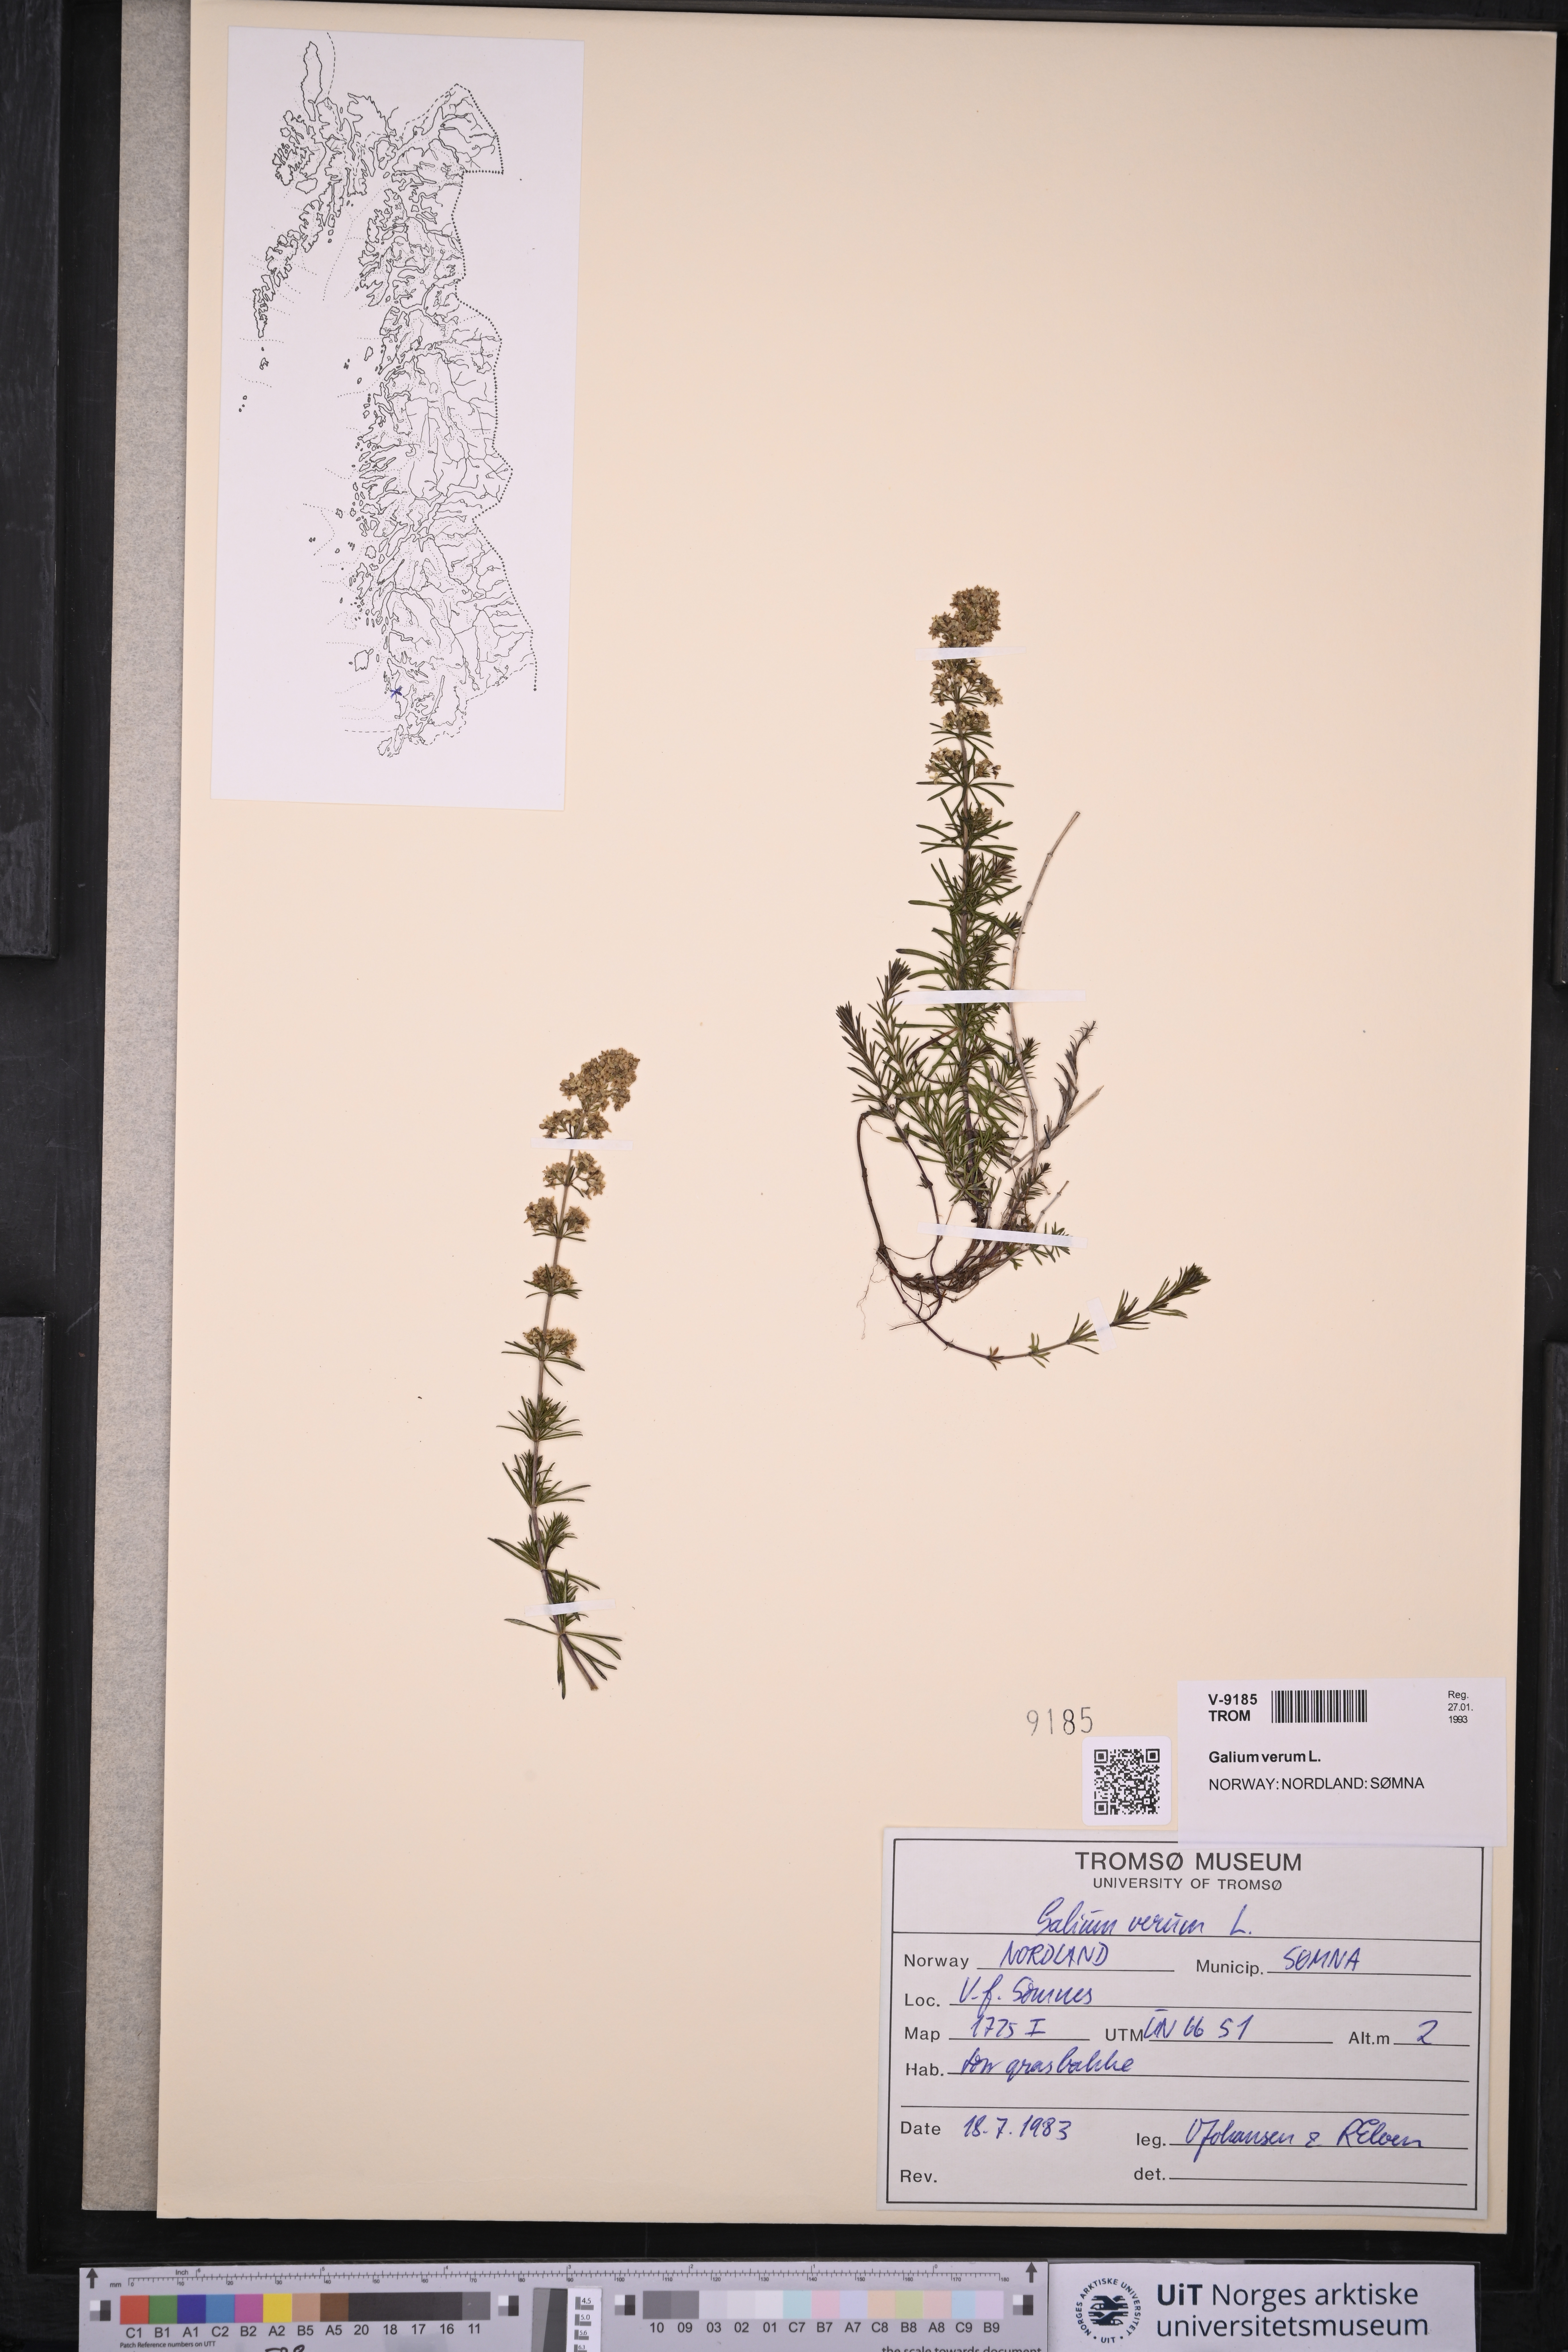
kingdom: Plantae
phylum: Tracheophyta
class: Magnoliopsida
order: Gentianales
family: Rubiaceae
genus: Galium
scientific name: Galium verum
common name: Lady's bedstraw
